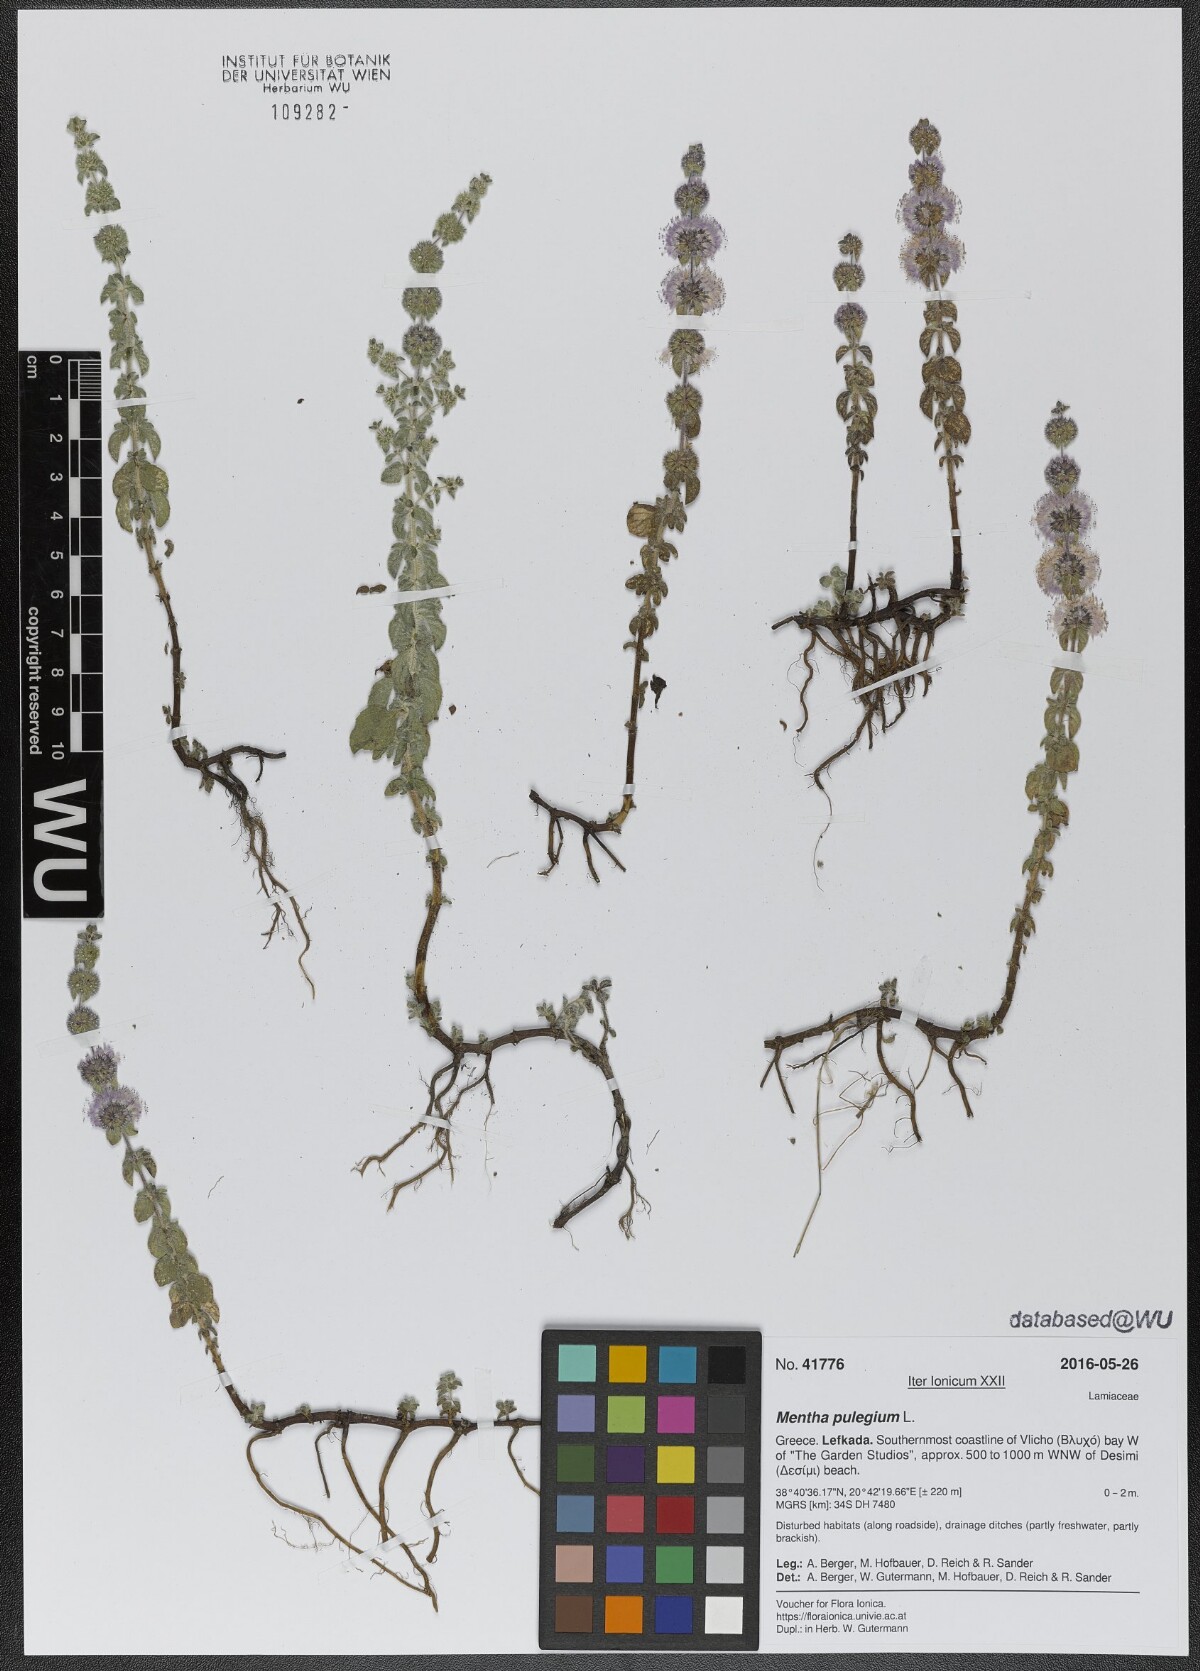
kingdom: Plantae
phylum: Tracheophyta
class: Magnoliopsida
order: Lamiales
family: Lamiaceae
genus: Mentha
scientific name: Mentha pulegium
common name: Pennyroyal
